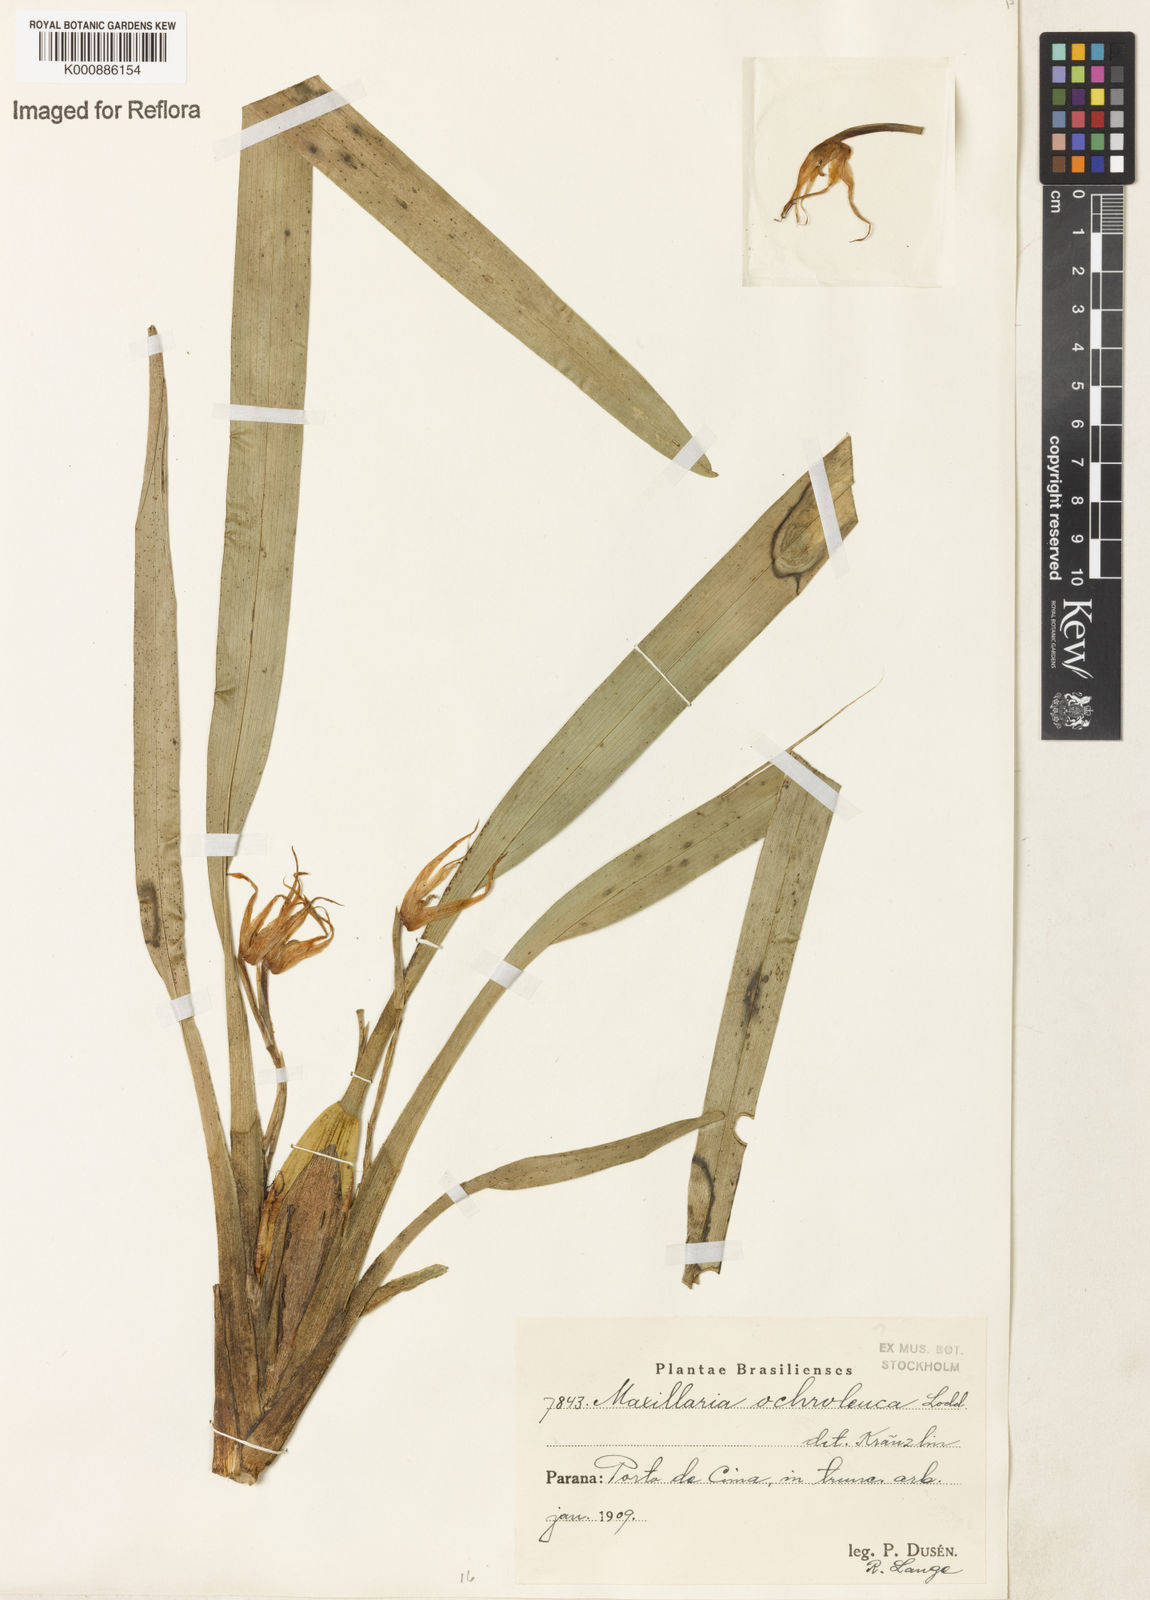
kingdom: Plantae
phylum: Tracheophyta
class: Liliopsida
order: Asparagales
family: Orchidaceae
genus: Maxillaria
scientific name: Maxillaria ochroleuca
